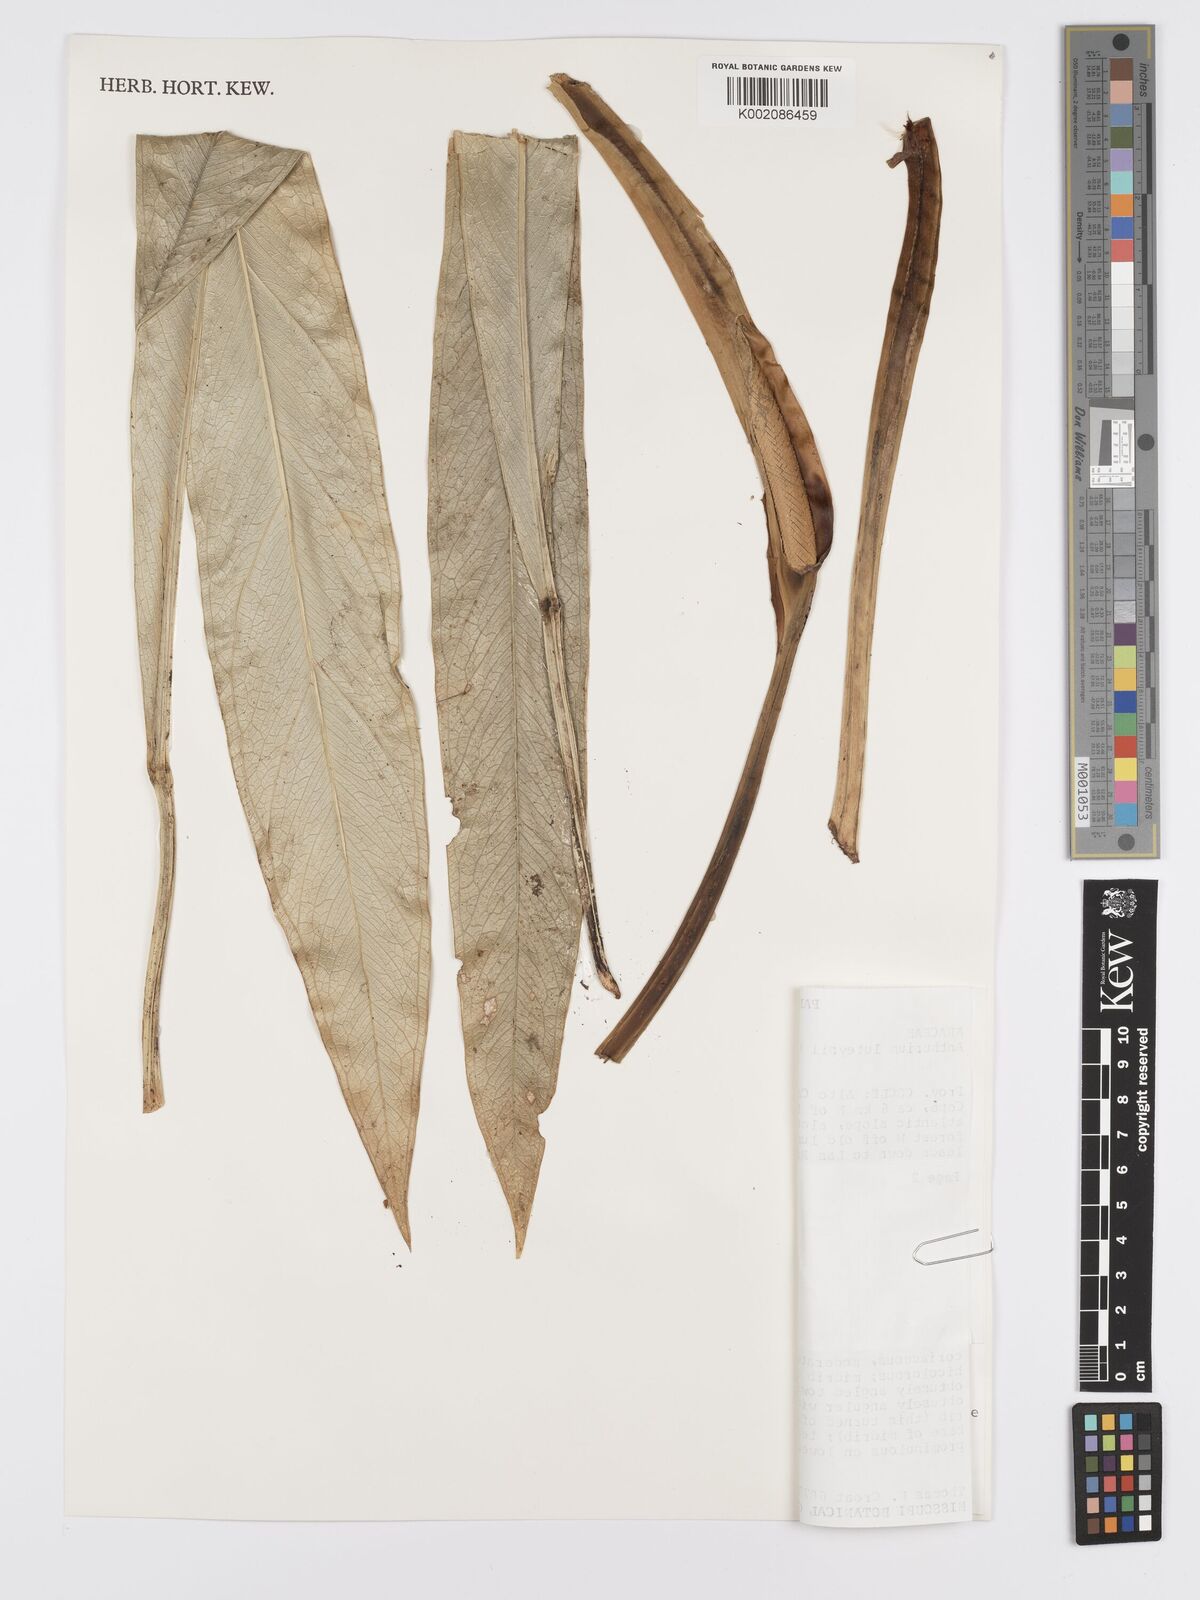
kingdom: Plantae
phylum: Tracheophyta
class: Liliopsida
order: Alismatales
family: Araceae
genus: Anthurium
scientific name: Anthurium luteynii
